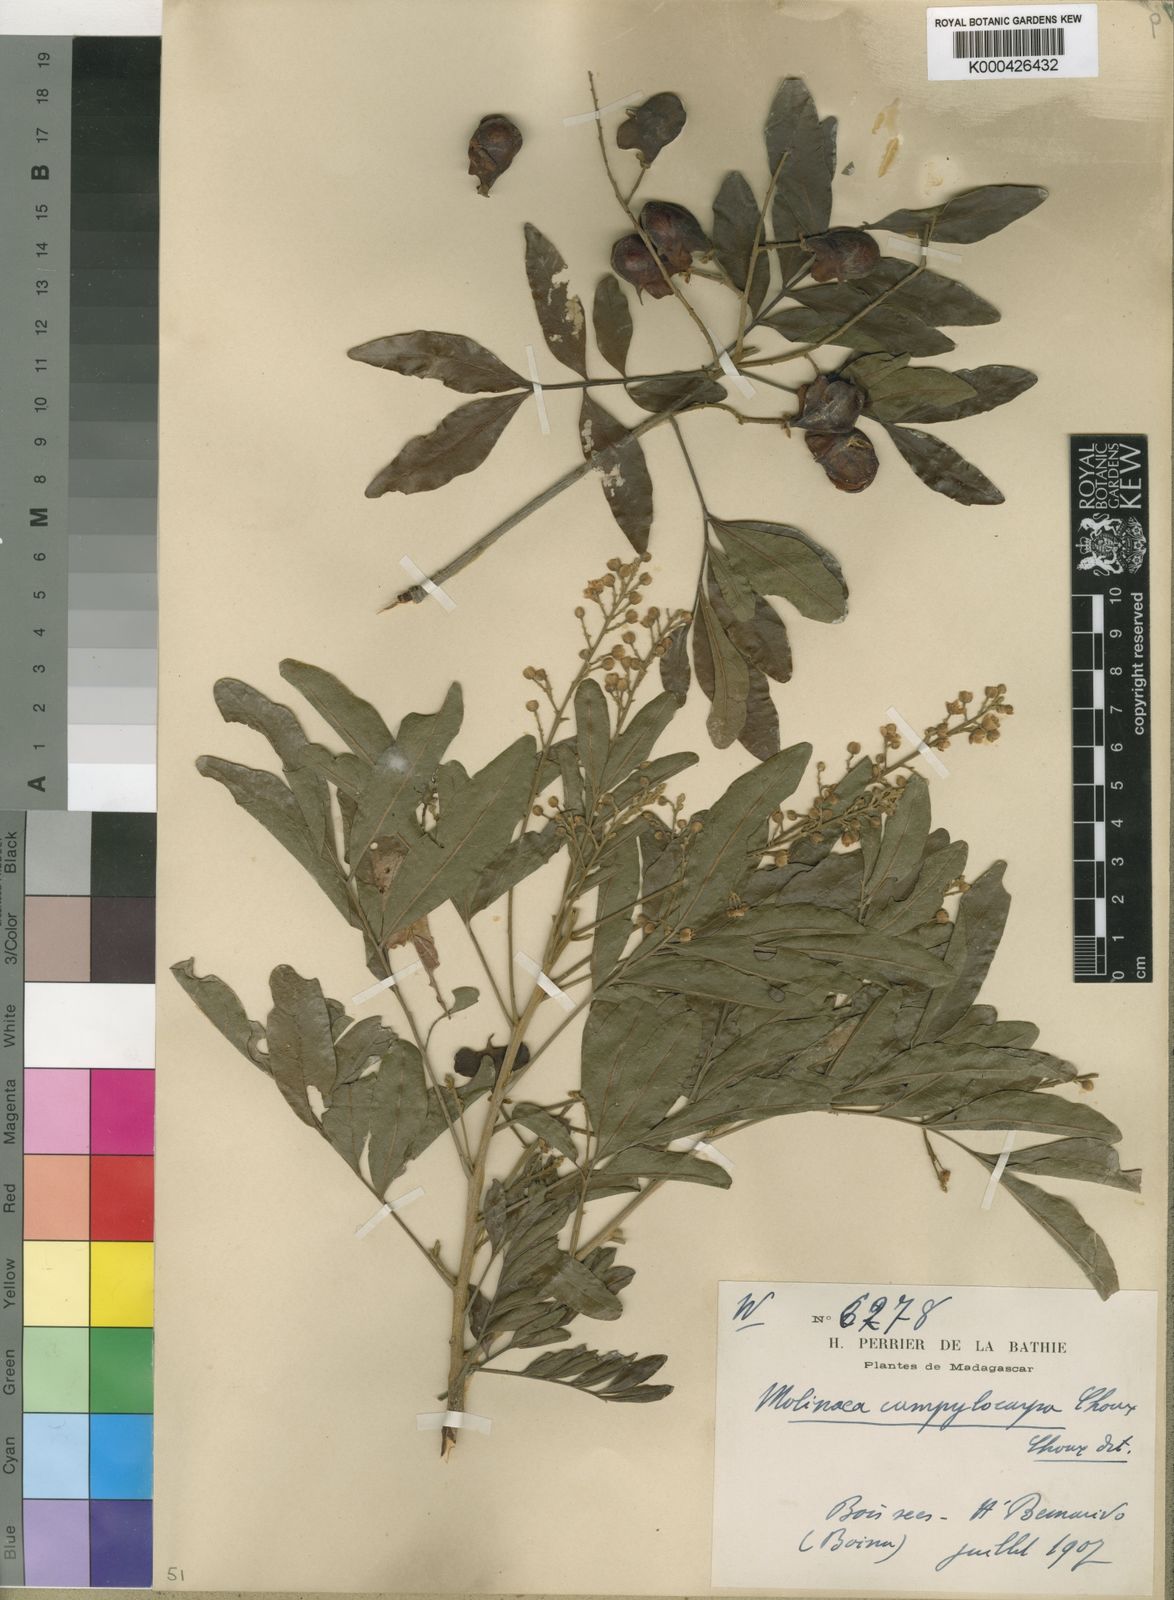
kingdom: Plantae
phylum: Tracheophyta
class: Magnoliopsida
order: Sapindales
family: Sapindaceae
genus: Molinaea
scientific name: Molinaea retusa
